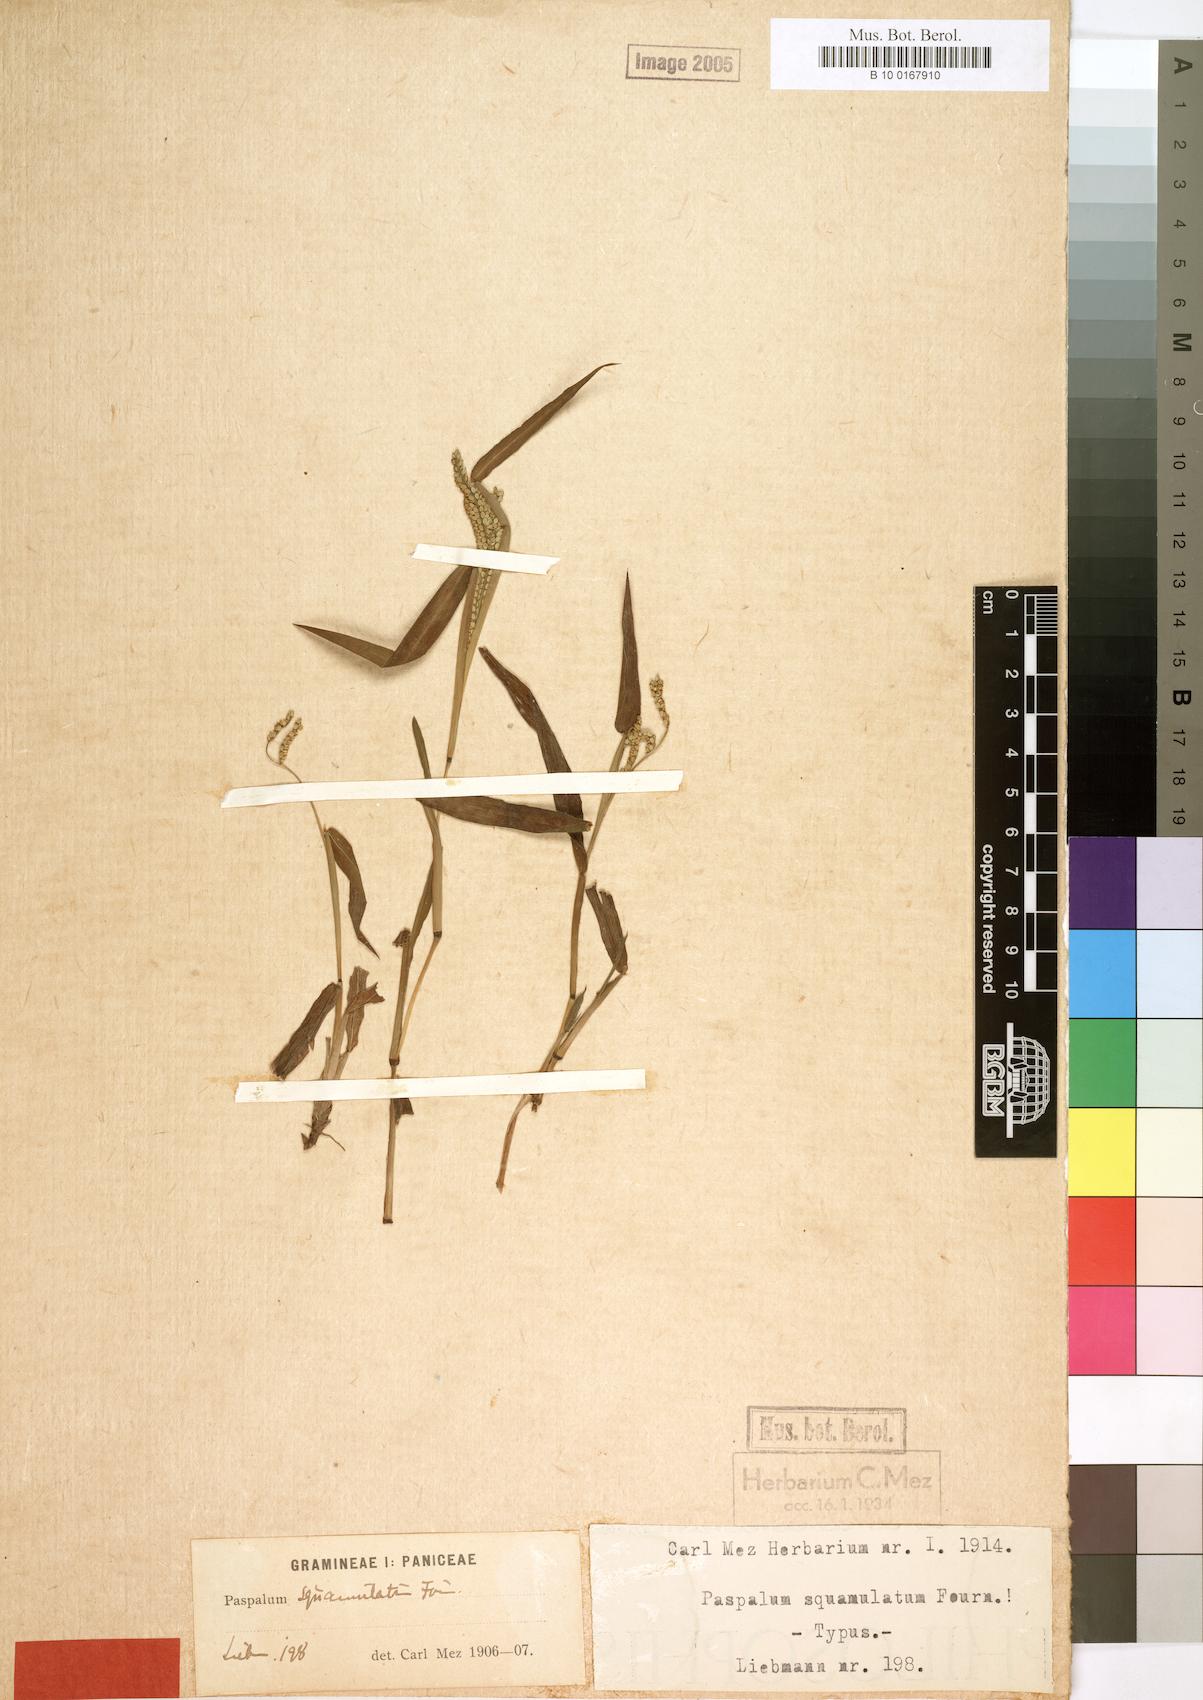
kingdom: Plantae
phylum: Tracheophyta
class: Liliopsida
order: Poales
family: Poaceae
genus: Paspalum
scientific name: Paspalum squamulatum
